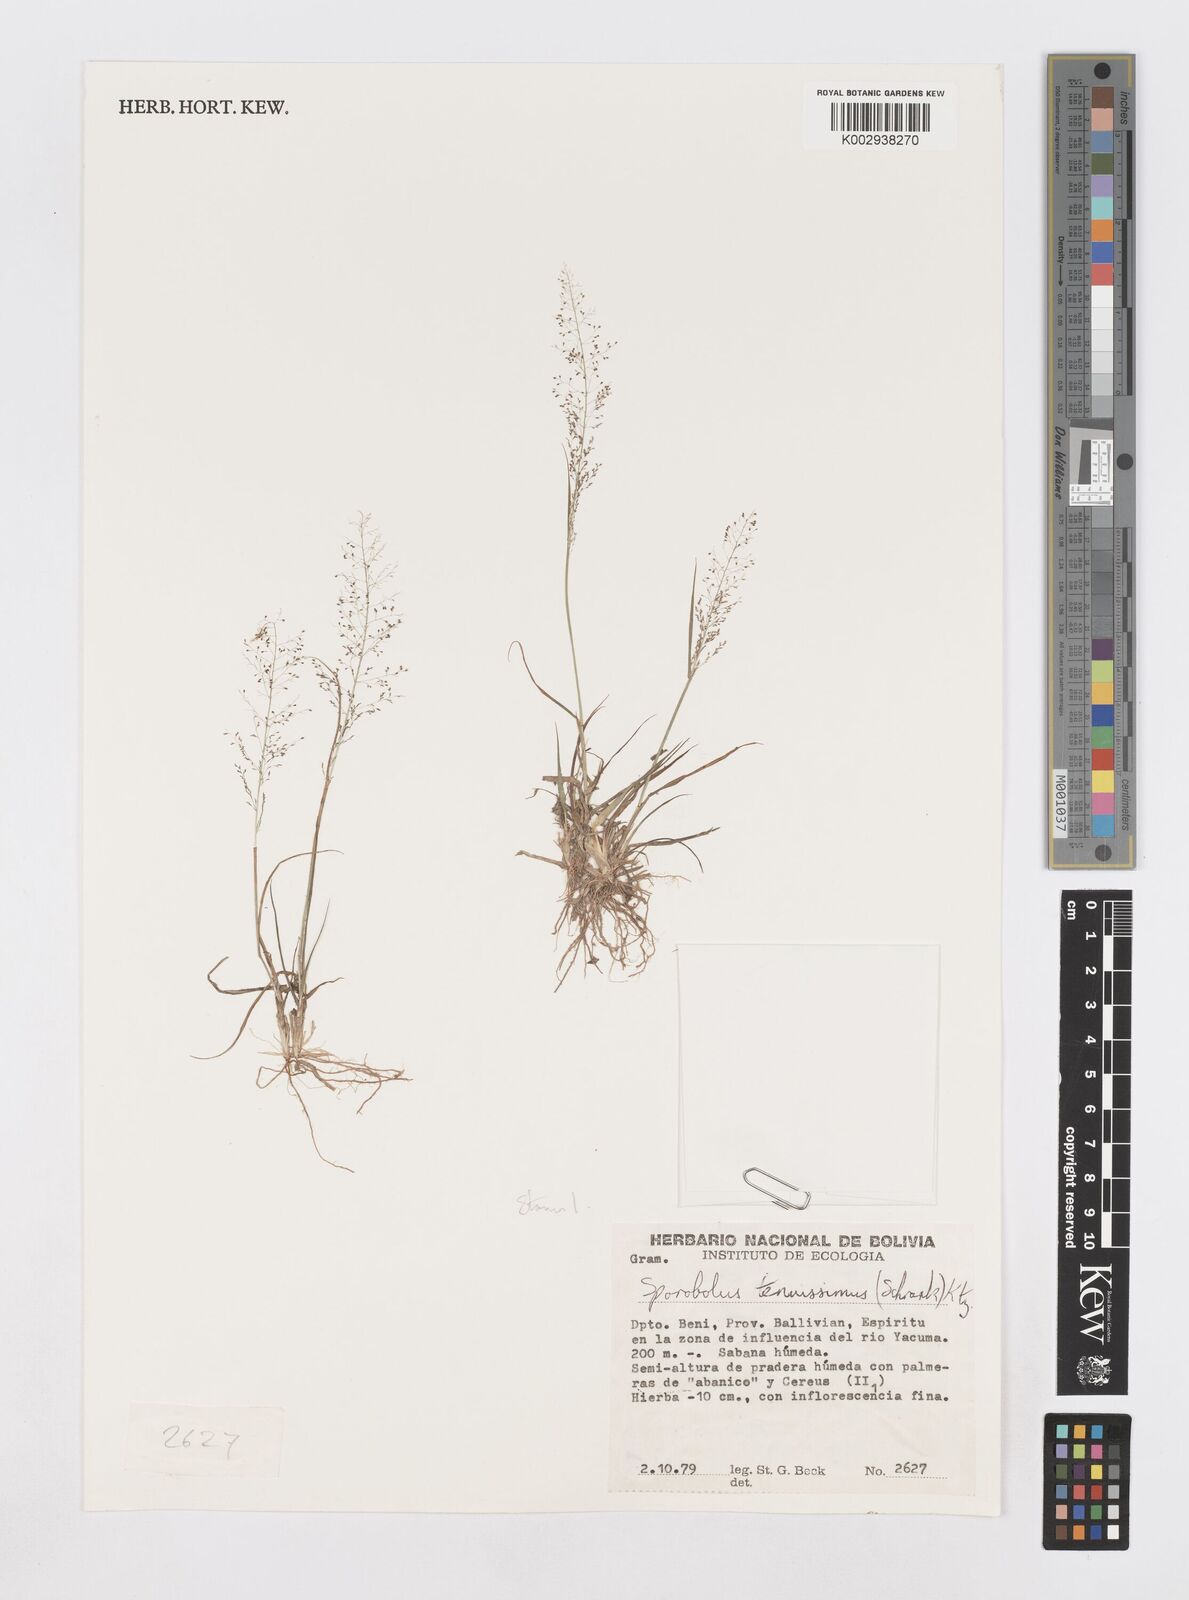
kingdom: Plantae
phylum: Tracheophyta
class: Liliopsida
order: Poales
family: Poaceae
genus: Sporobolus
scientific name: Sporobolus monandrus
